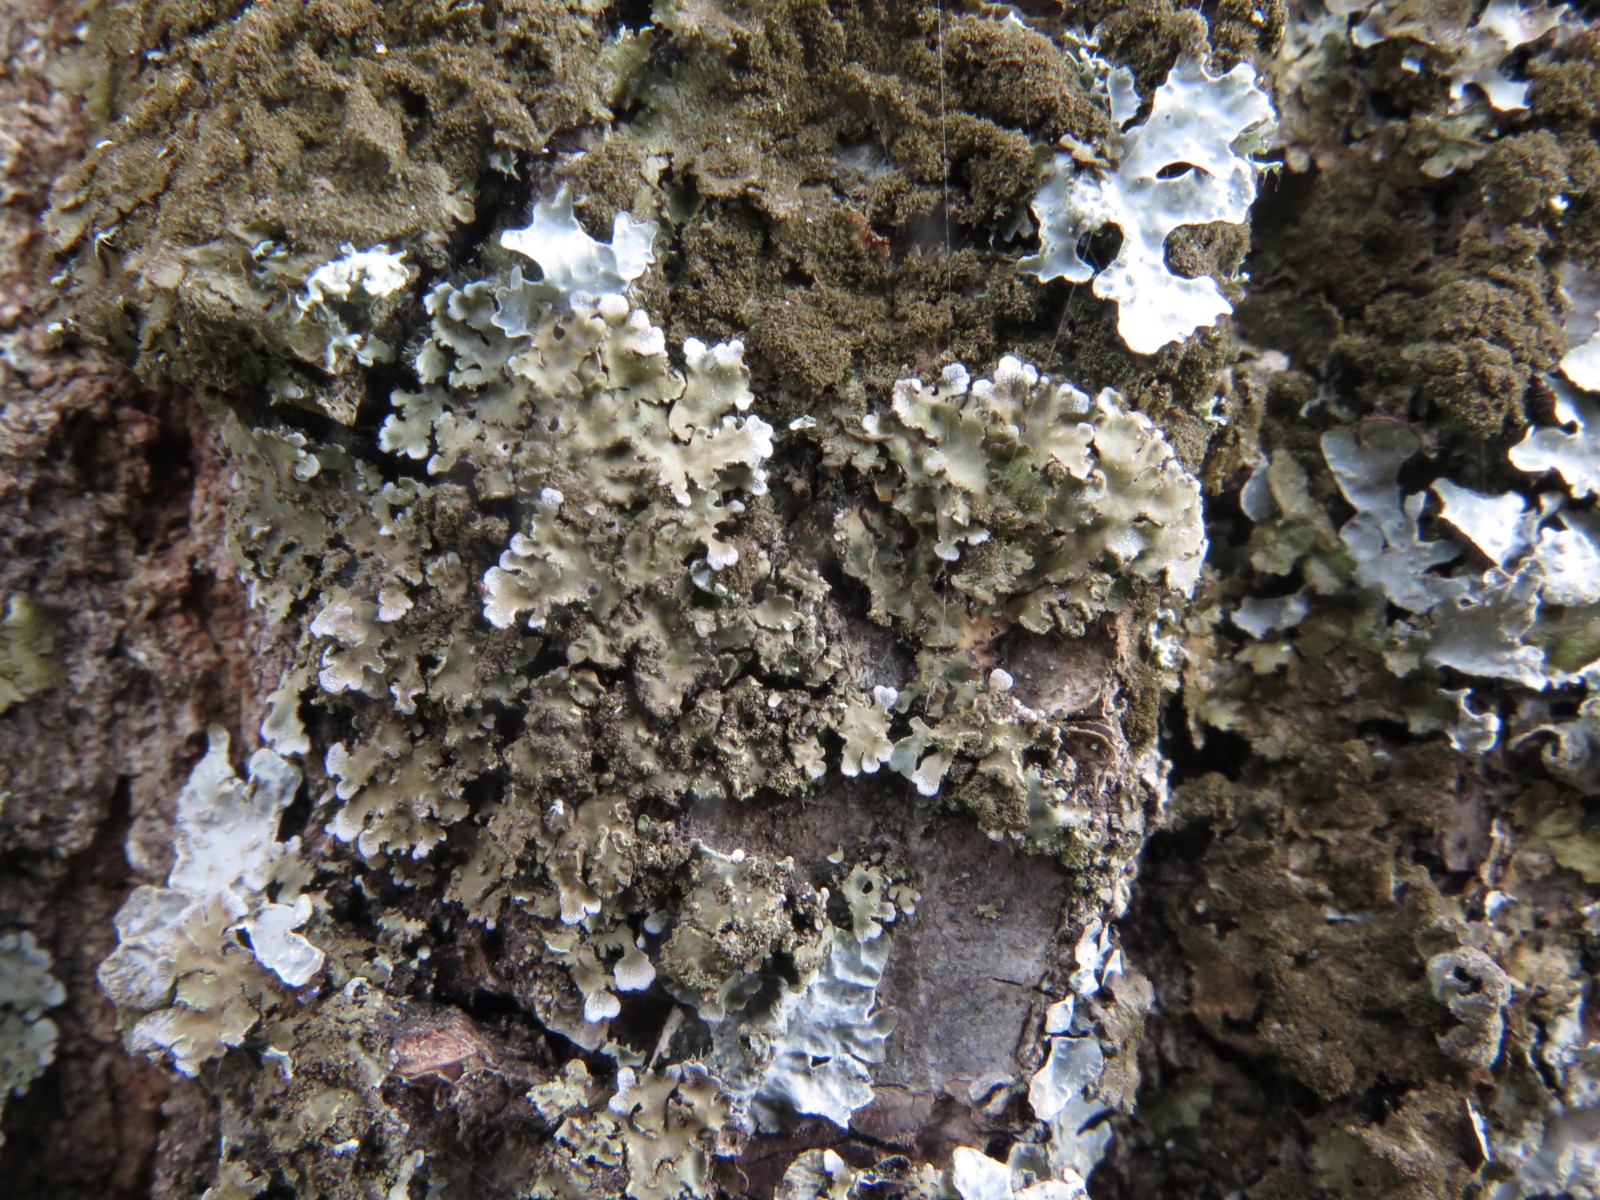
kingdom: Fungi
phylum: Ascomycota
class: Lecanoromycetes
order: Caliciales
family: Physciaceae
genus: Physconia
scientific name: Physconia enteroxantha
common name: grynet dugrosetlav
